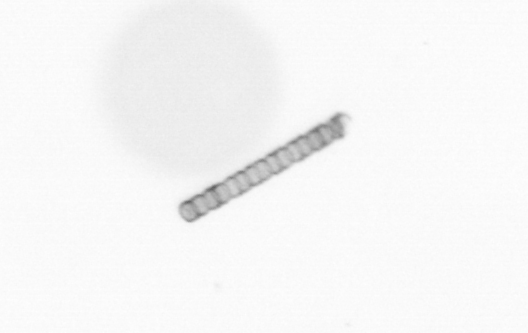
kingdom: Chromista
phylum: Ochrophyta
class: Bacillariophyceae
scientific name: Bacillariophyceae
